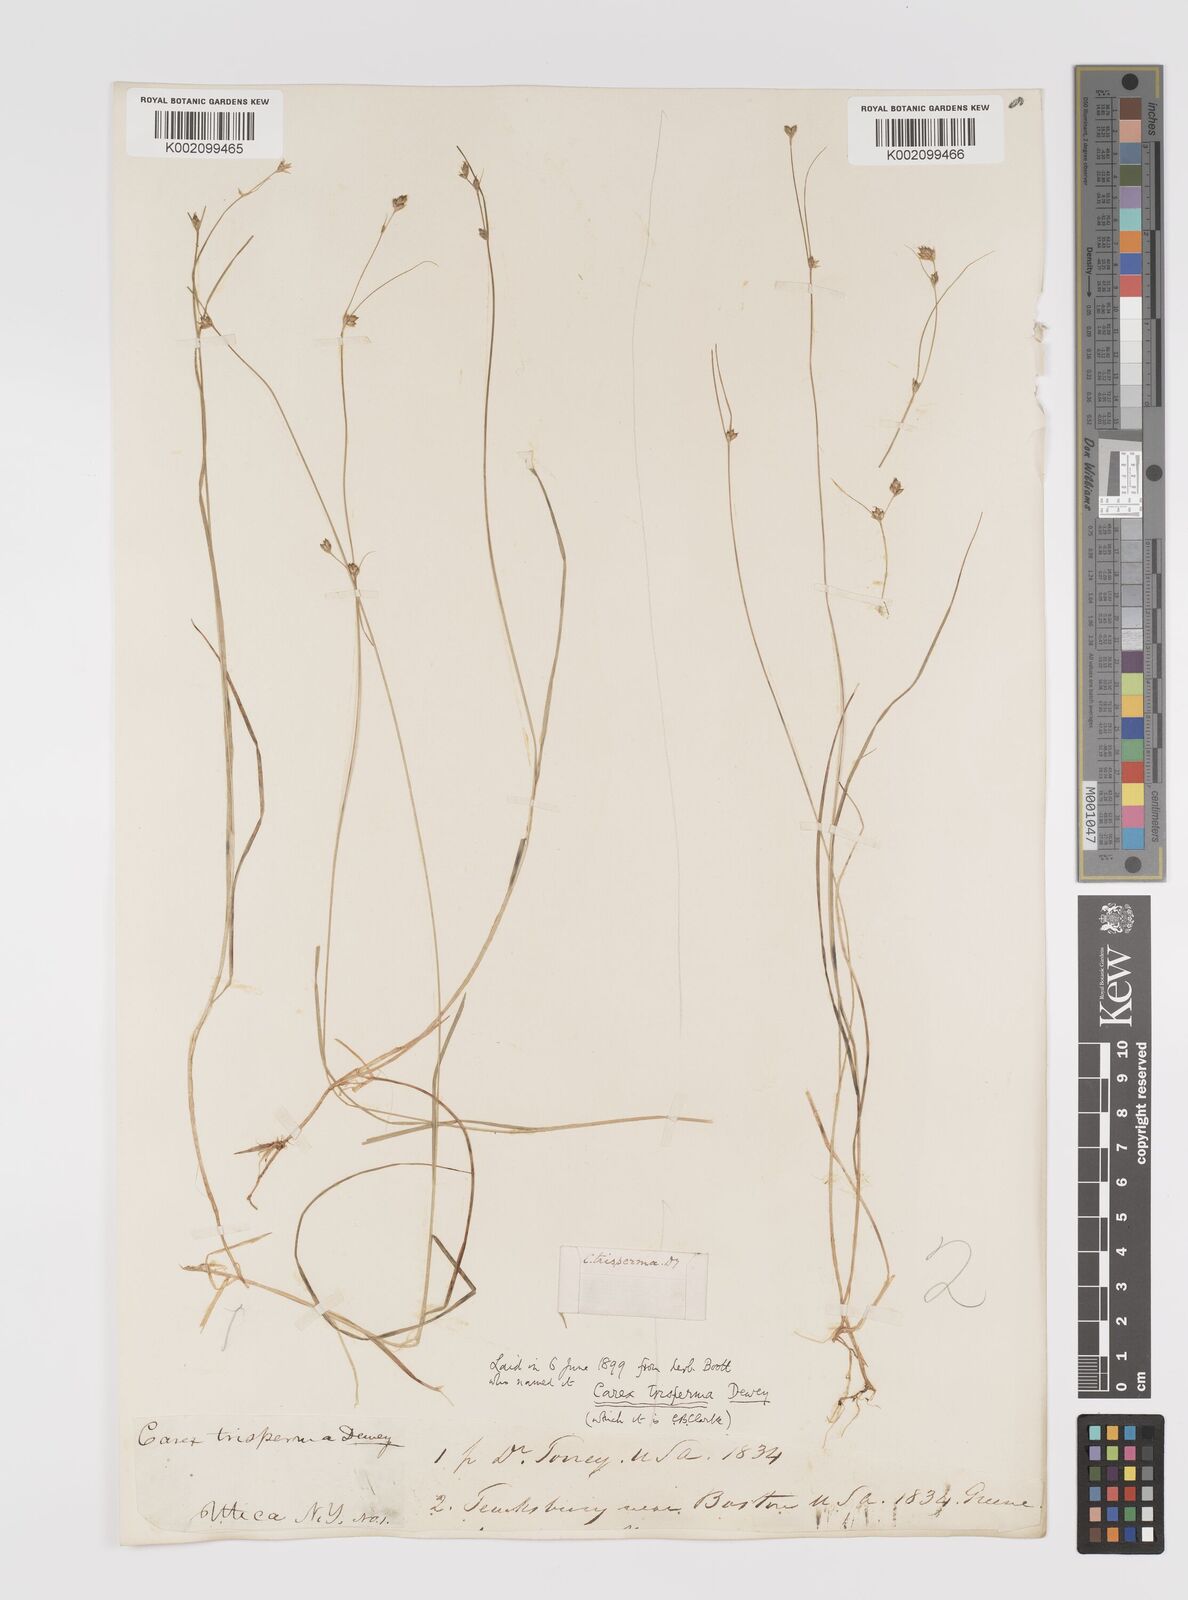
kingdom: Plantae
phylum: Tracheophyta
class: Liliopsida
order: Poales
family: Cyperaceae
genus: Carex
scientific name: Carex trisperma
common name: Three-seeded sedge
